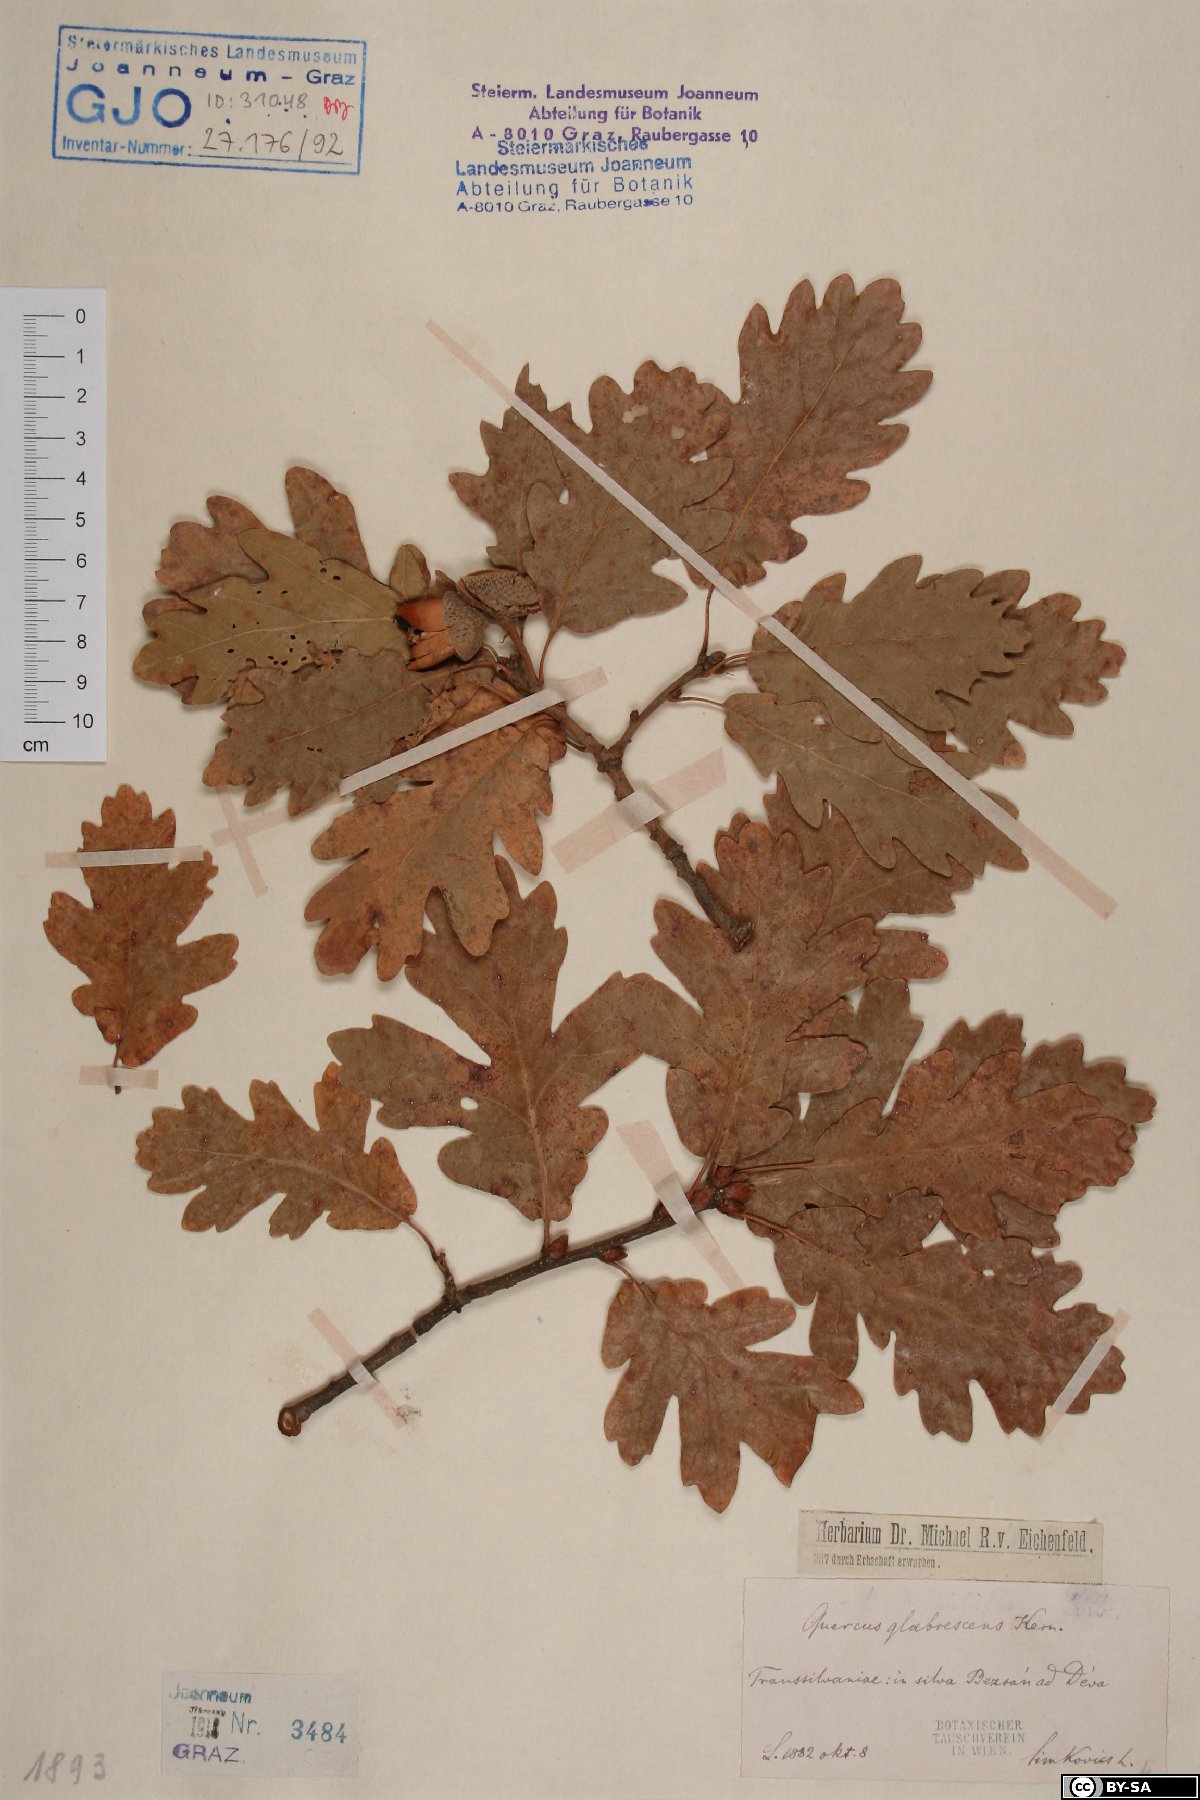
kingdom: Plantae
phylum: Tracheophyta
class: Magnoliopsida
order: Fagales
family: Fagaceae
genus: Quercus
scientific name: Quercus kerneri
